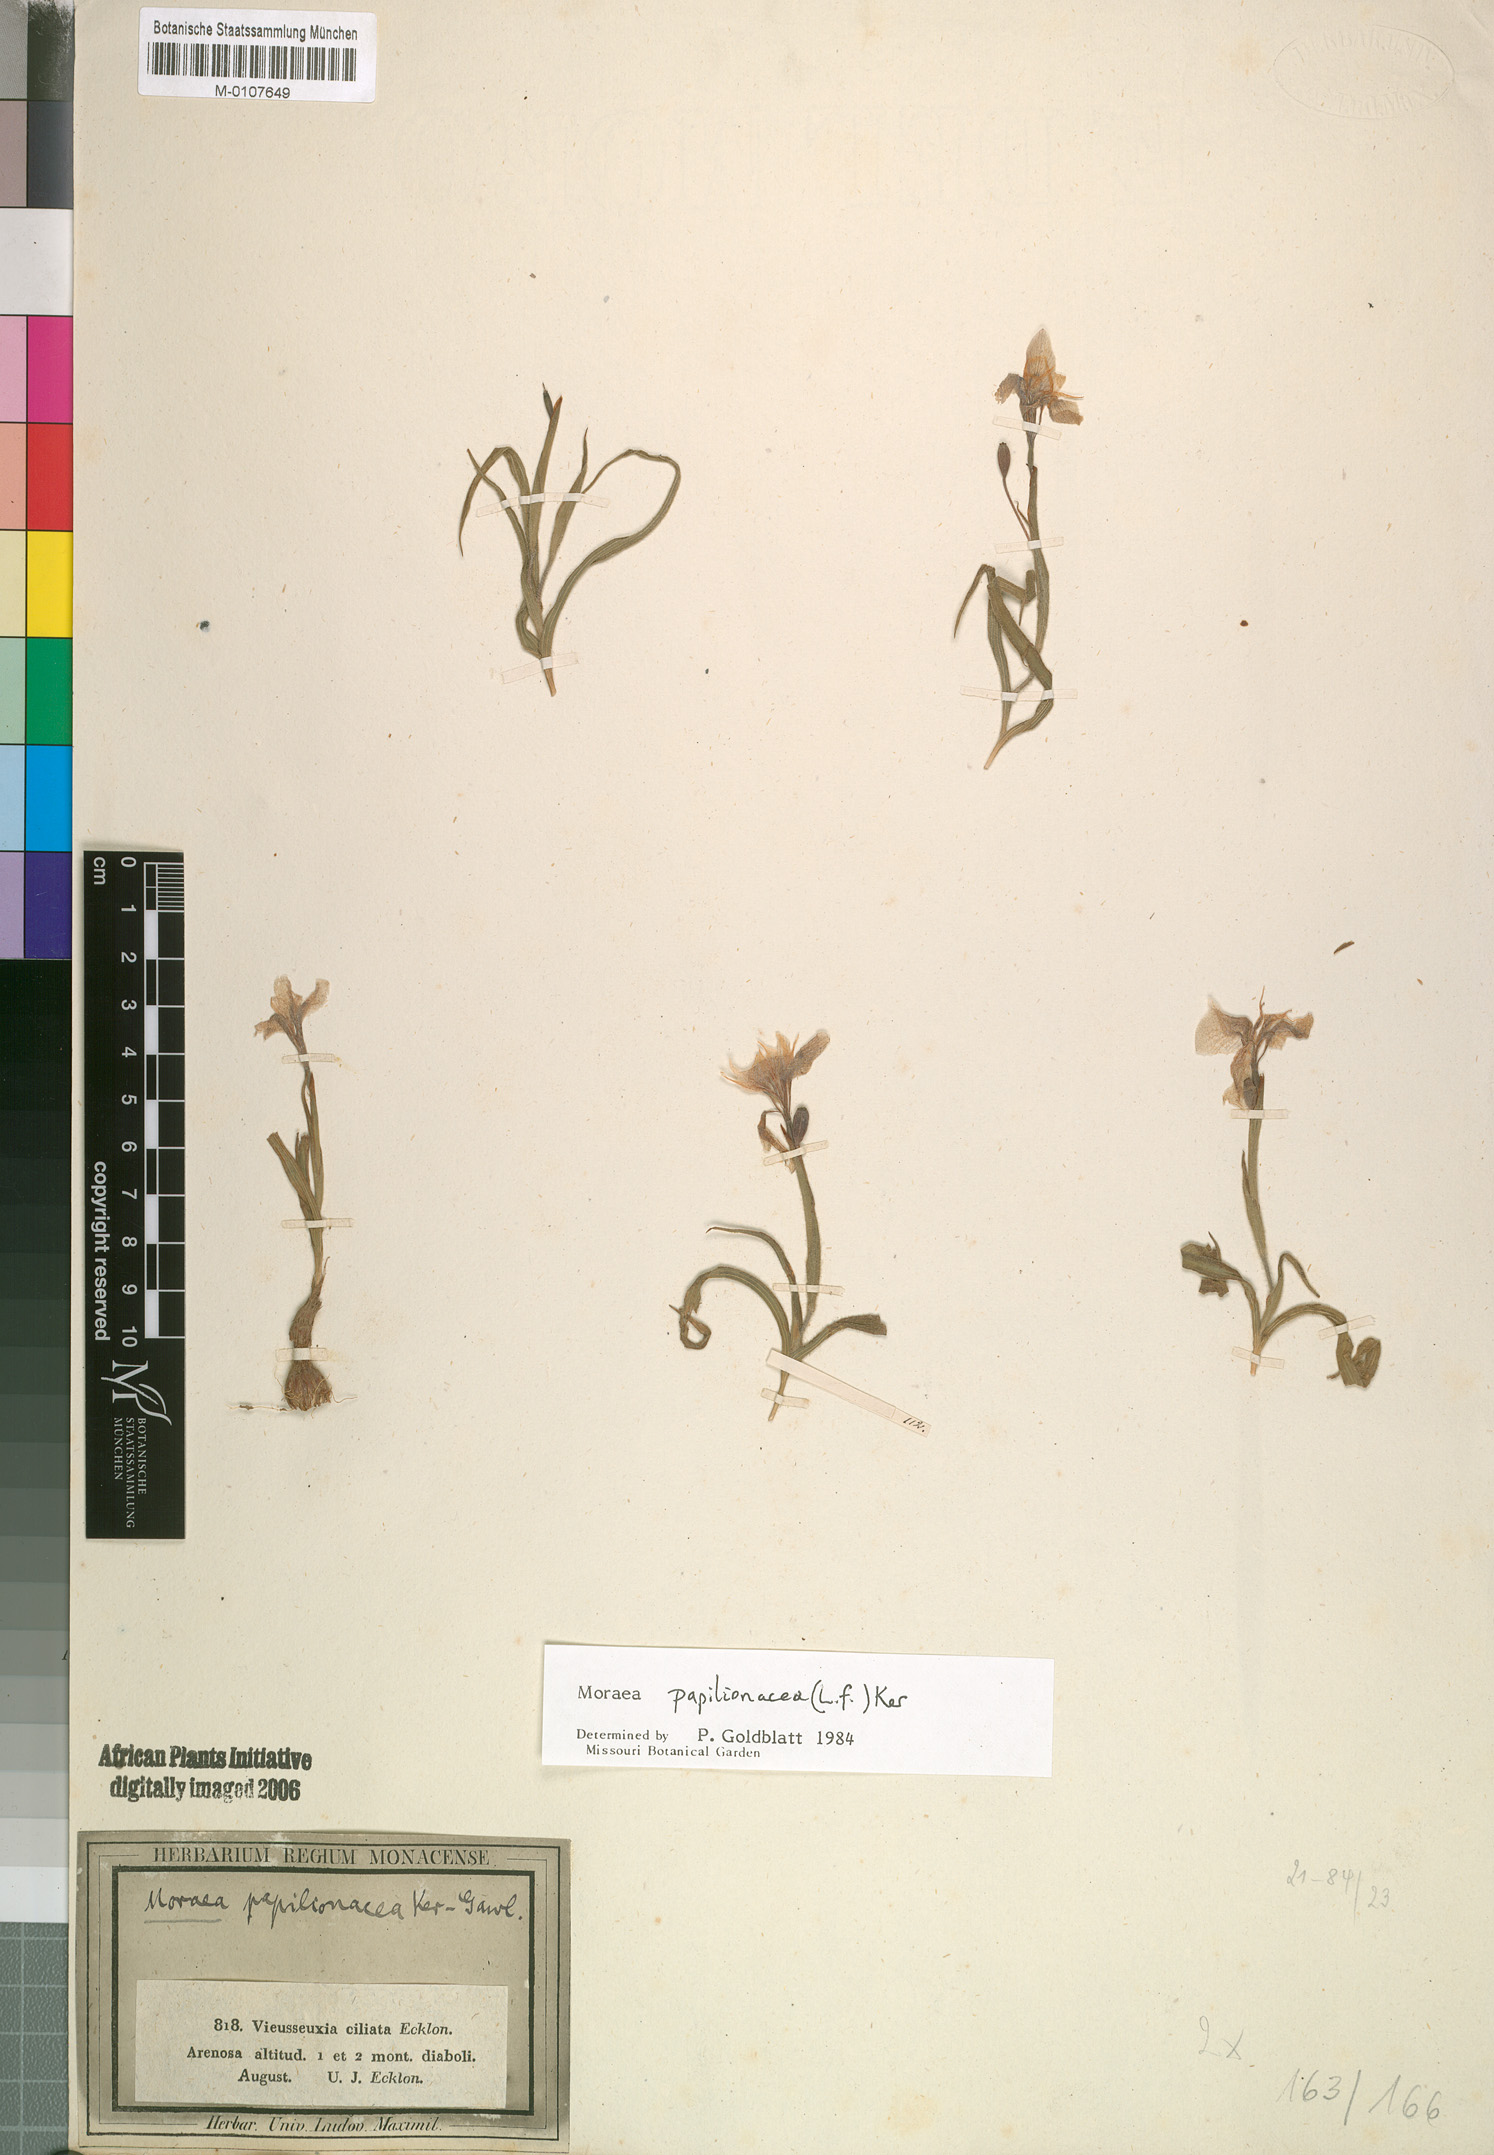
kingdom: Plantae
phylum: Tracheophyta
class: Liliopsida
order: Asparagales
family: Iridaceae
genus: Moraea
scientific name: Moraea papilionacea
